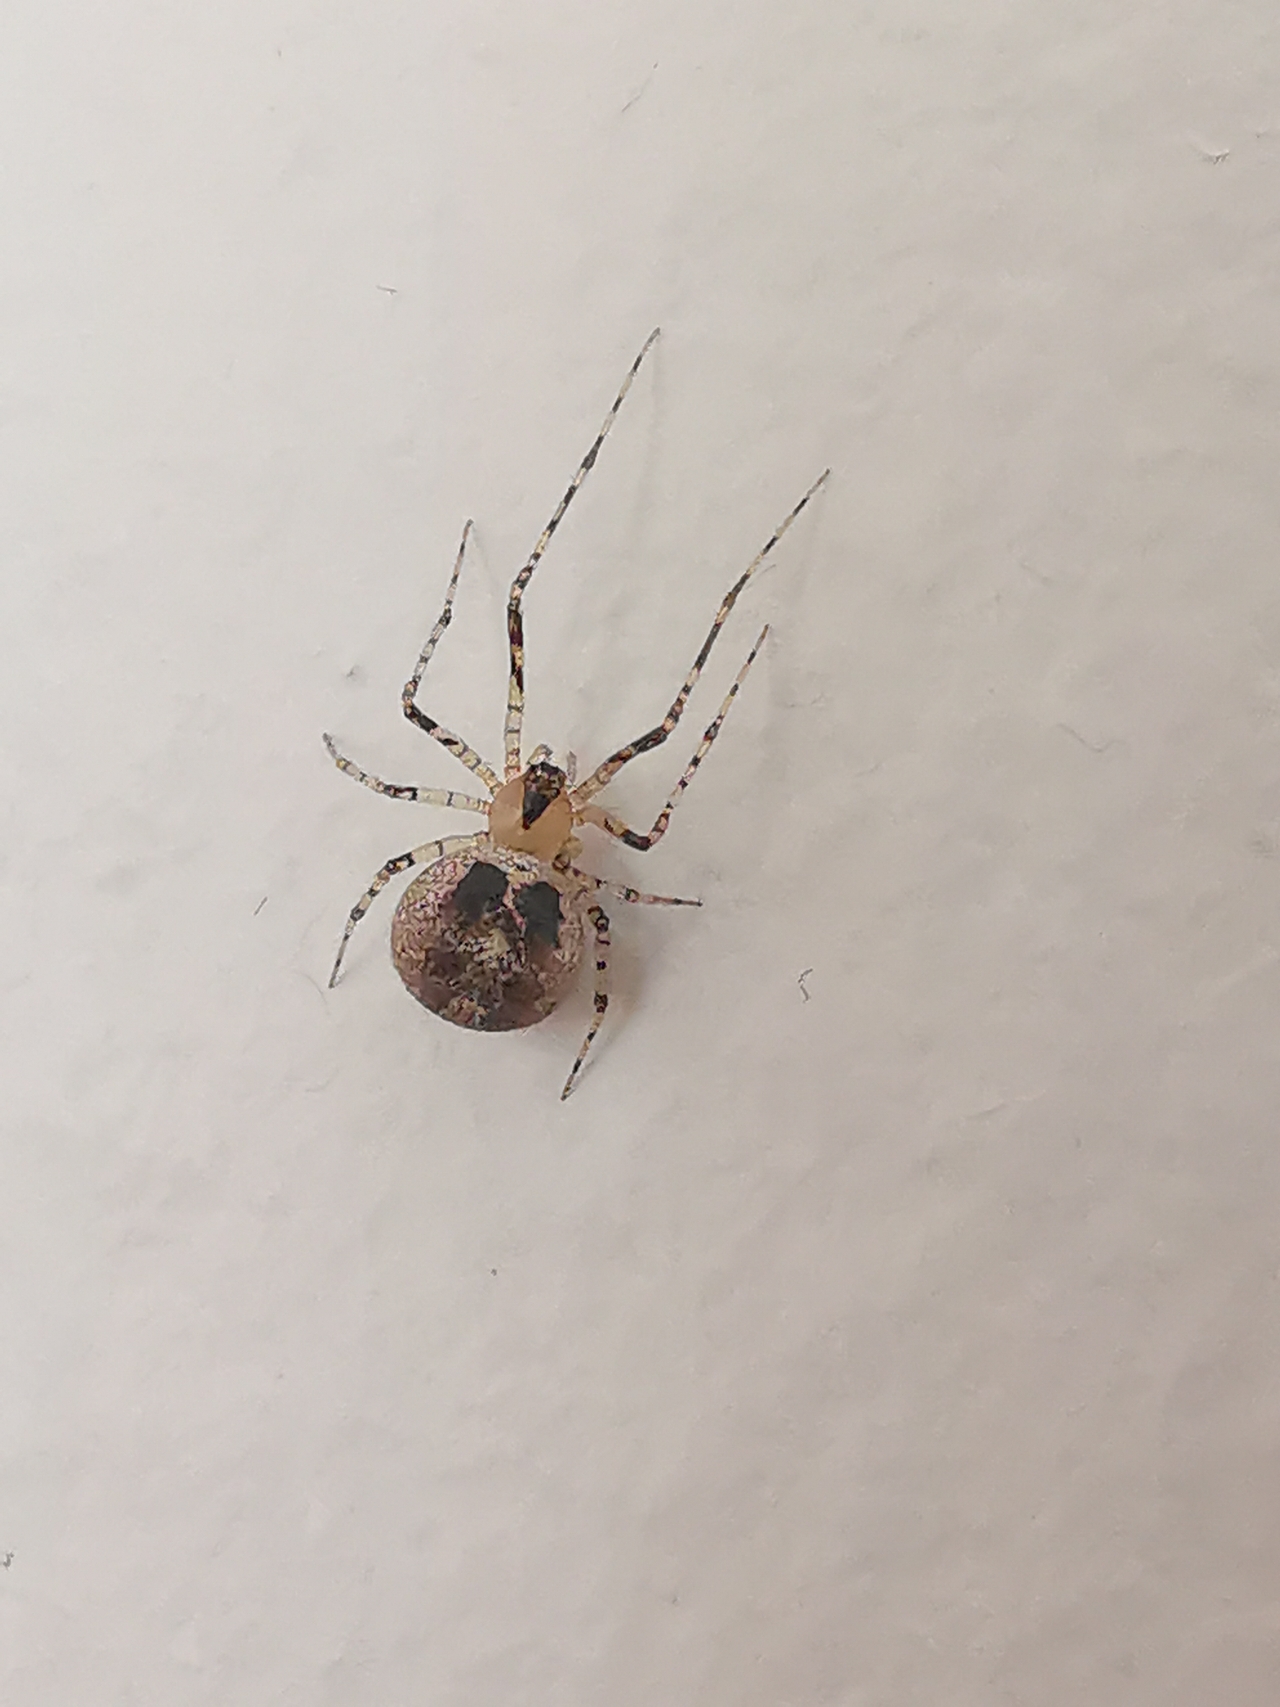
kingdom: Animalia
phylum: Arthropoda
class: Arachnida
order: Araneae
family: Theridiidae
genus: Platnickina
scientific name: Platnickina tincta
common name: Blækkugleedderkop
